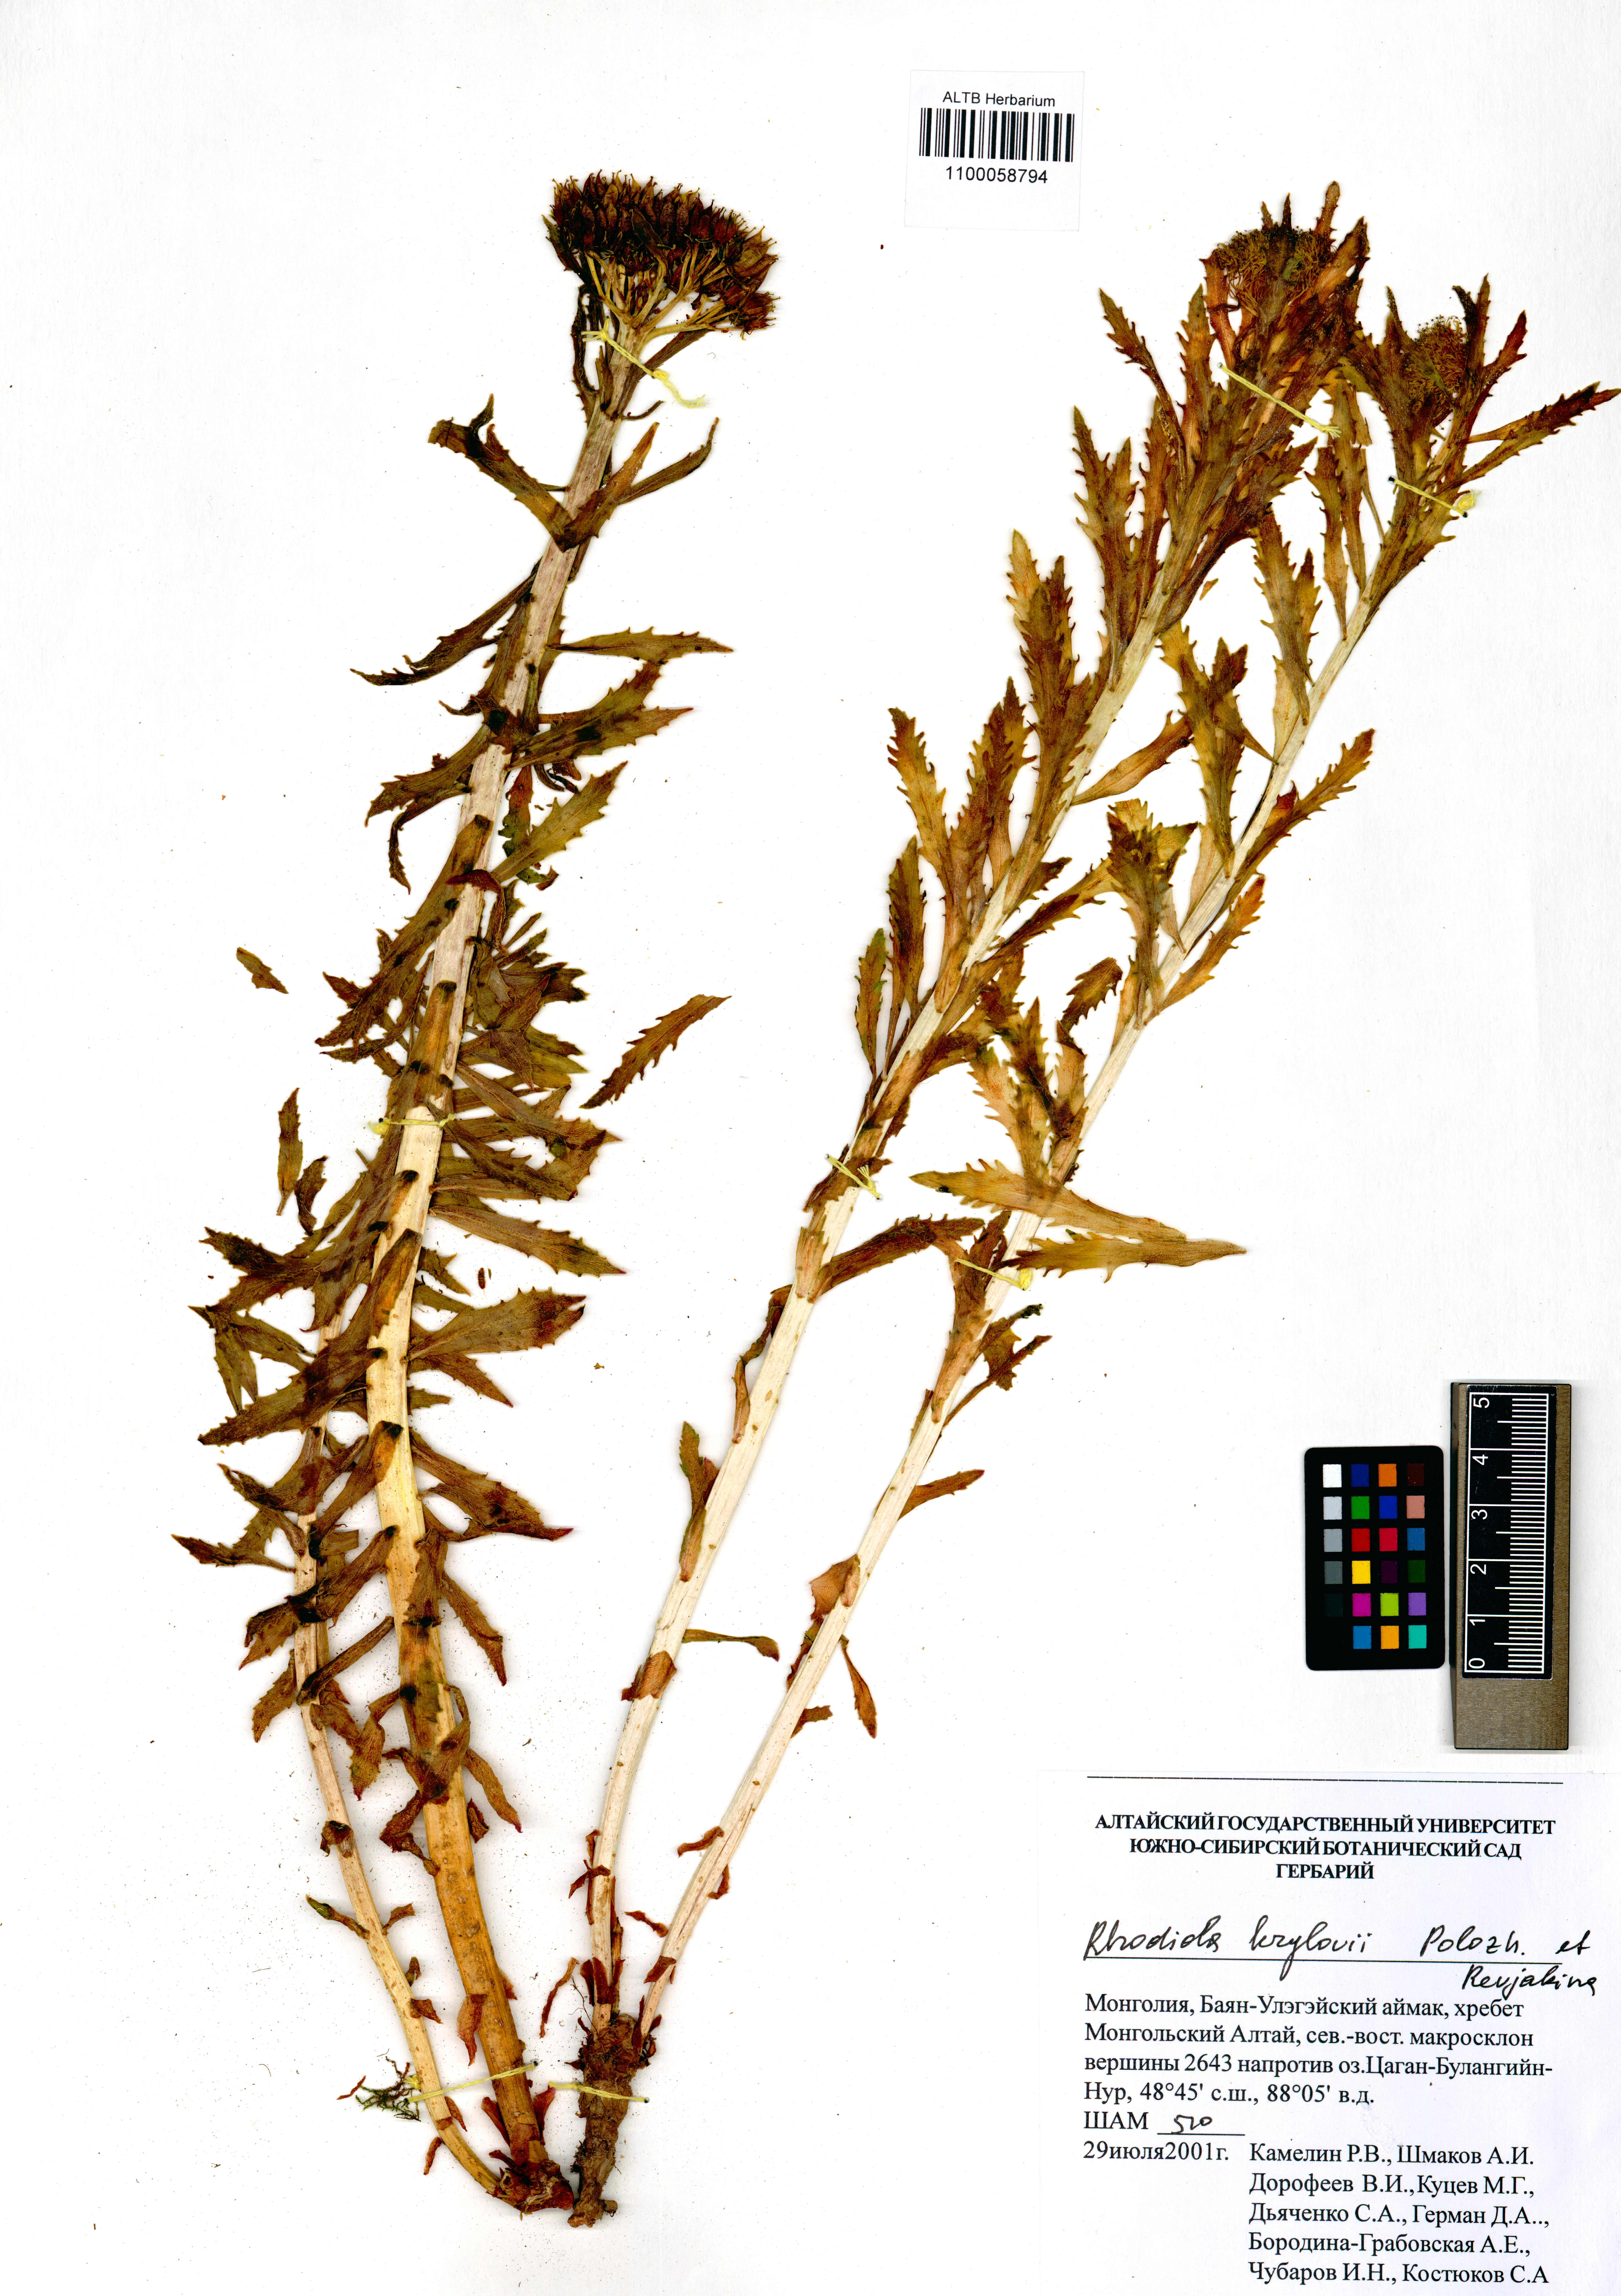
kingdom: Plantae
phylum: Tracheophyta
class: Magnoliopsida
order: Saxifragales
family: Crassulaceae
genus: Rhodiola
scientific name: Rhodiola stephani
